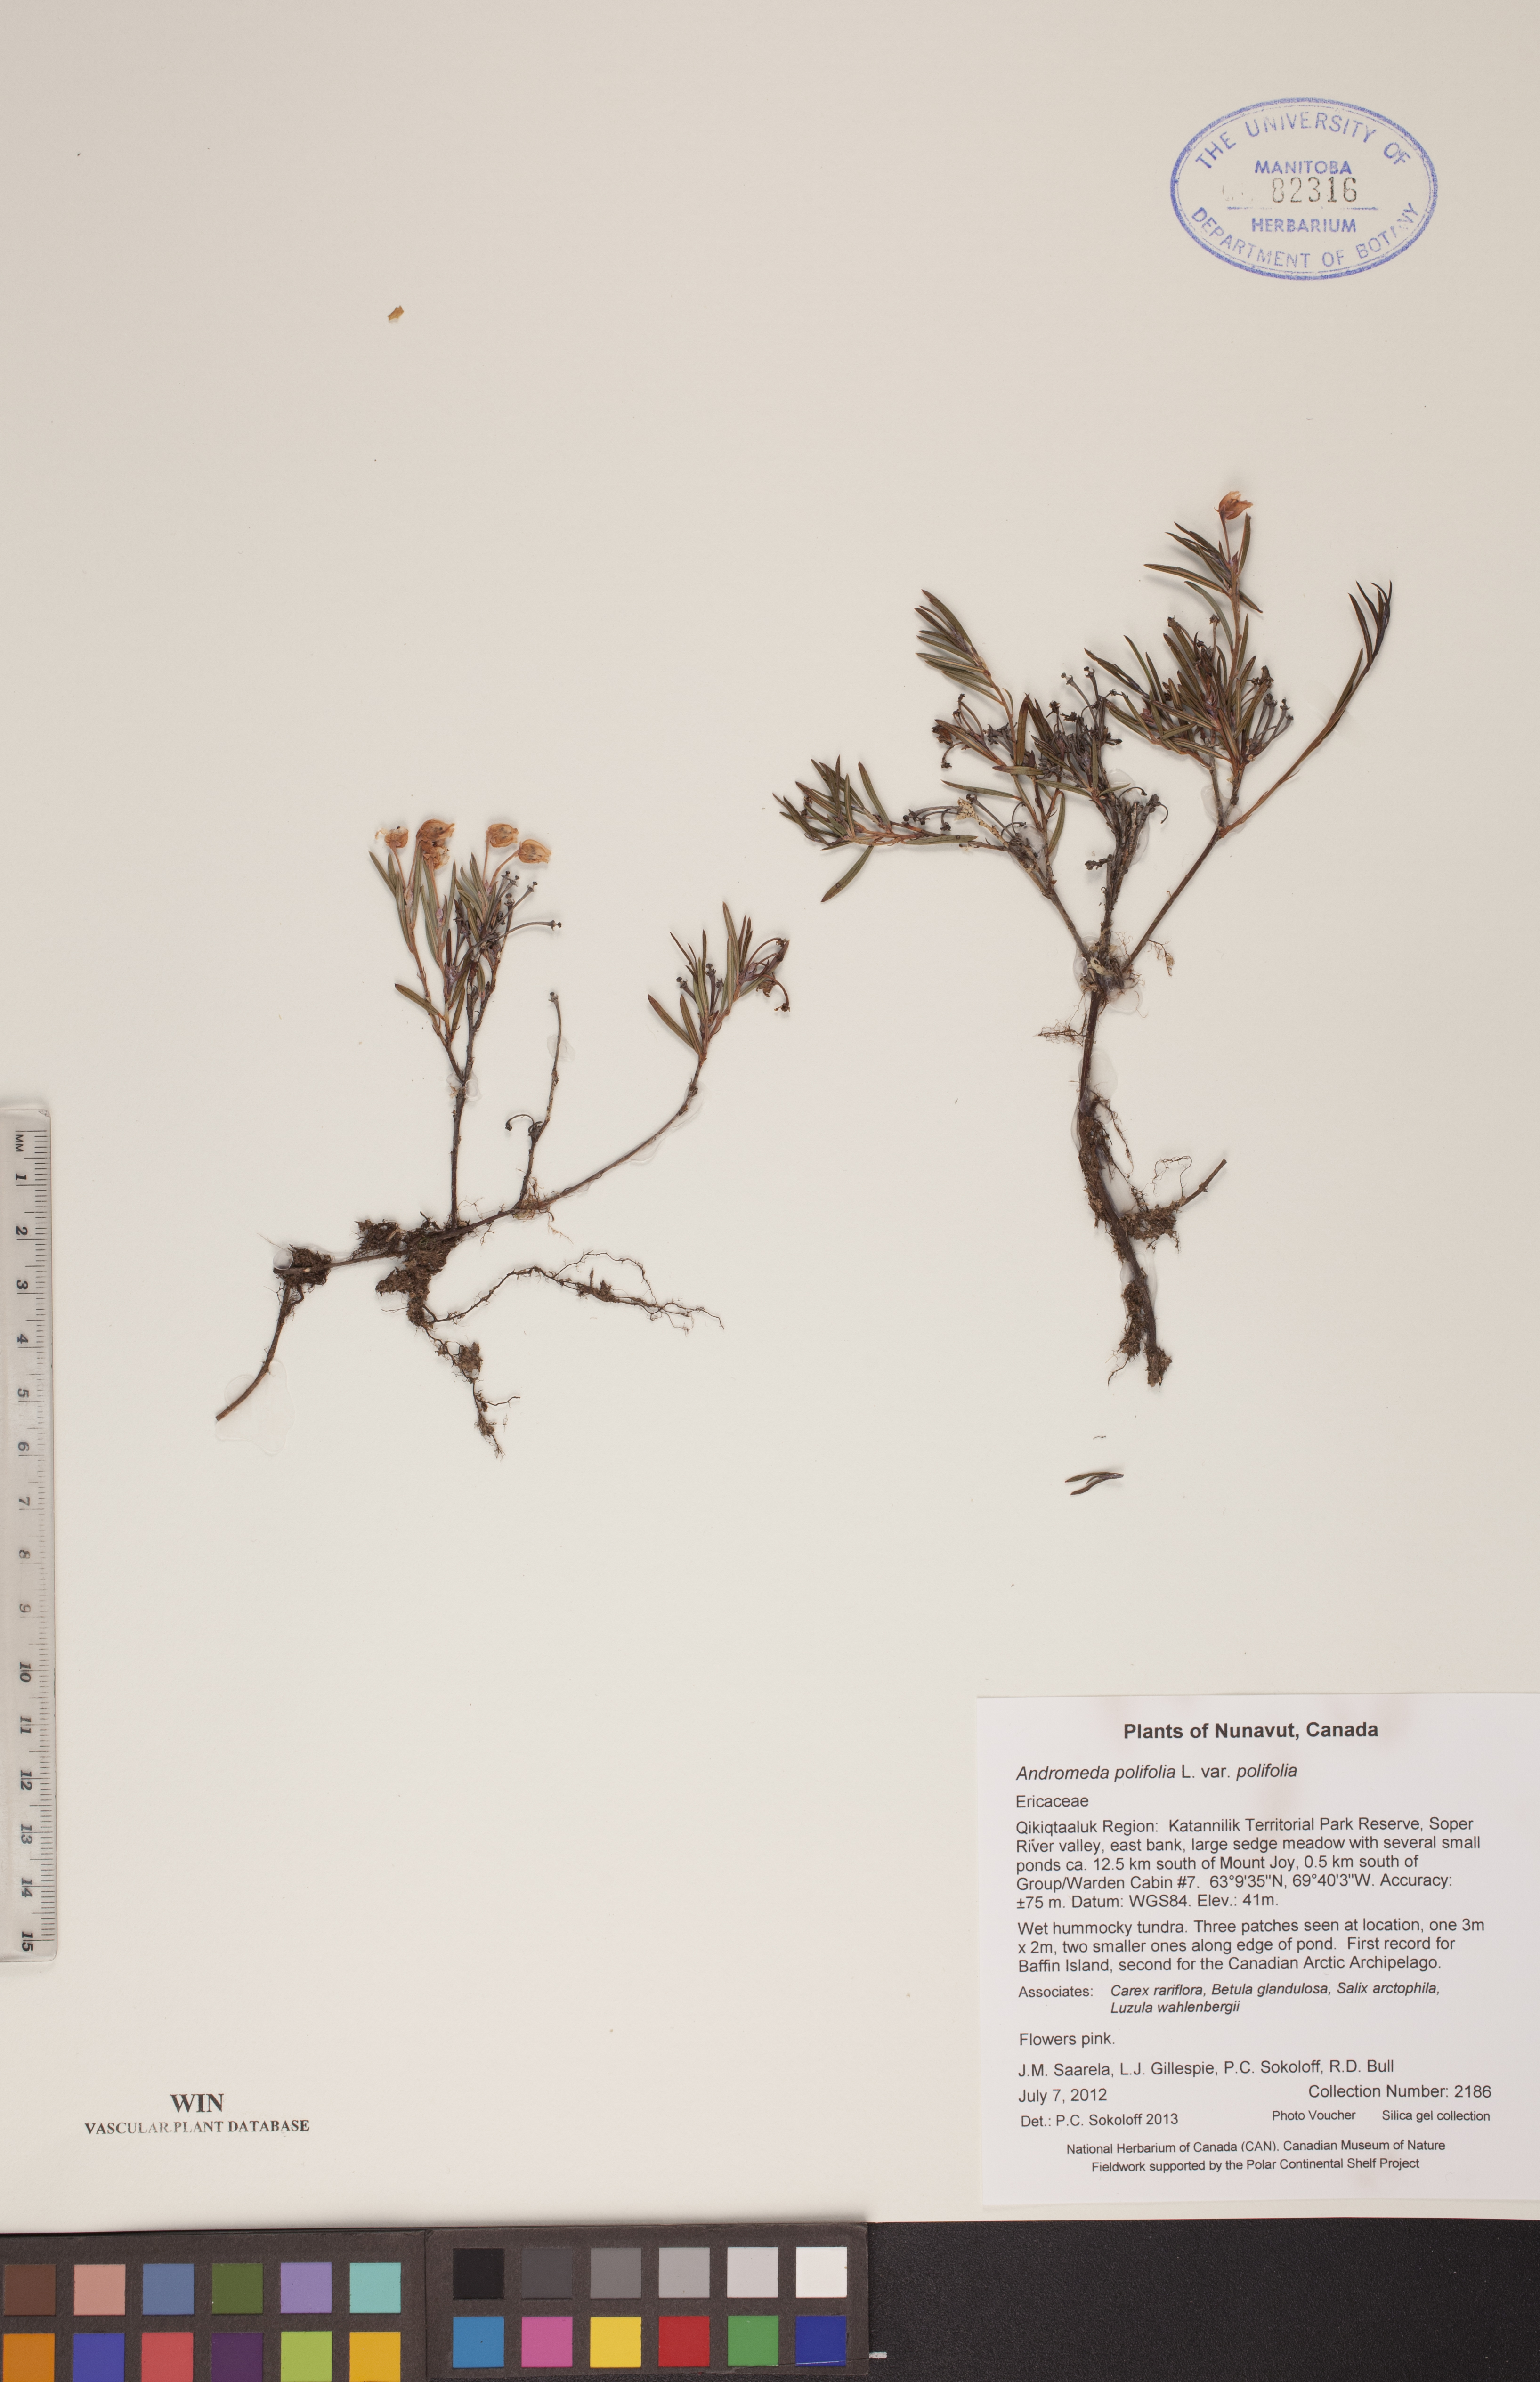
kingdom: Plantae
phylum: Tracheophyta
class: Magnoliopsida
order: Ericales
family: Ericaceae
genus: Andromeda
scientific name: Andromeda polifolia
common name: Bog-rosemary
